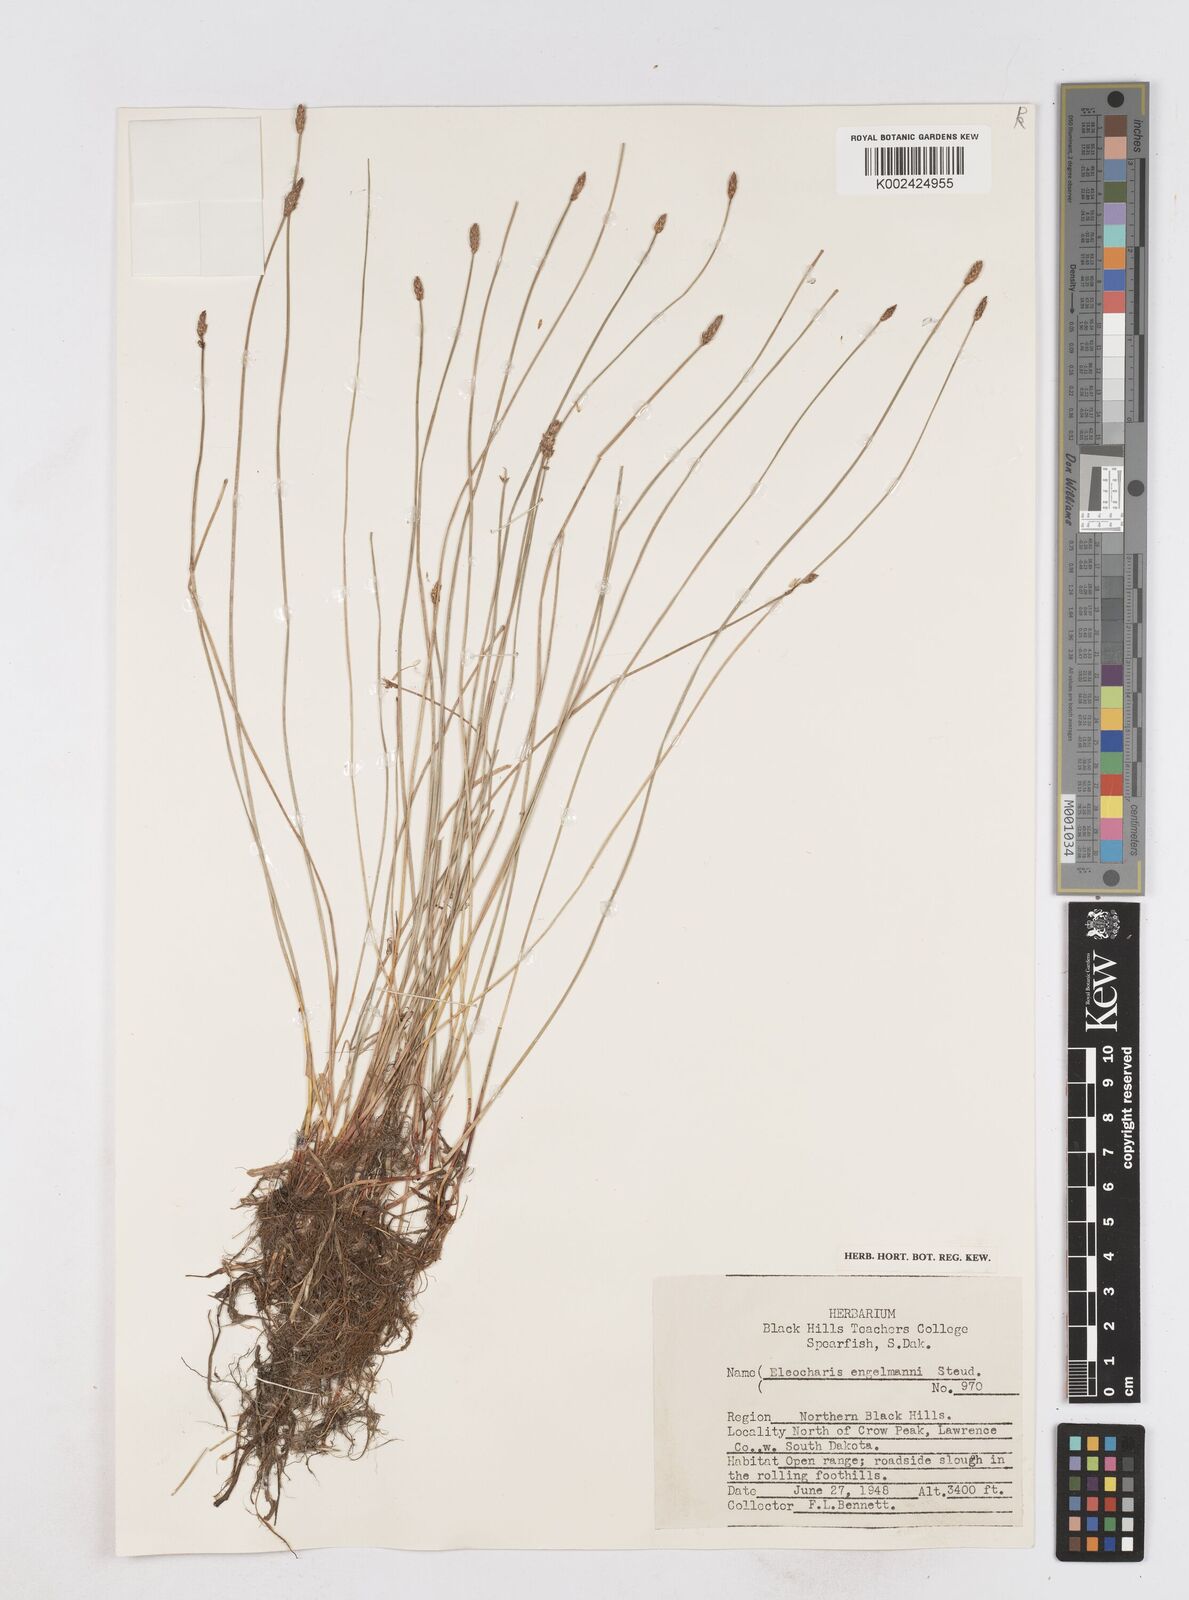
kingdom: Plantae
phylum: Tracheophyta
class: Liliopsida
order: Poales
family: Cyperaceae
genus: Eleocharis
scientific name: Eleocharis engelmannii
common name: Engelmann's spikerush
